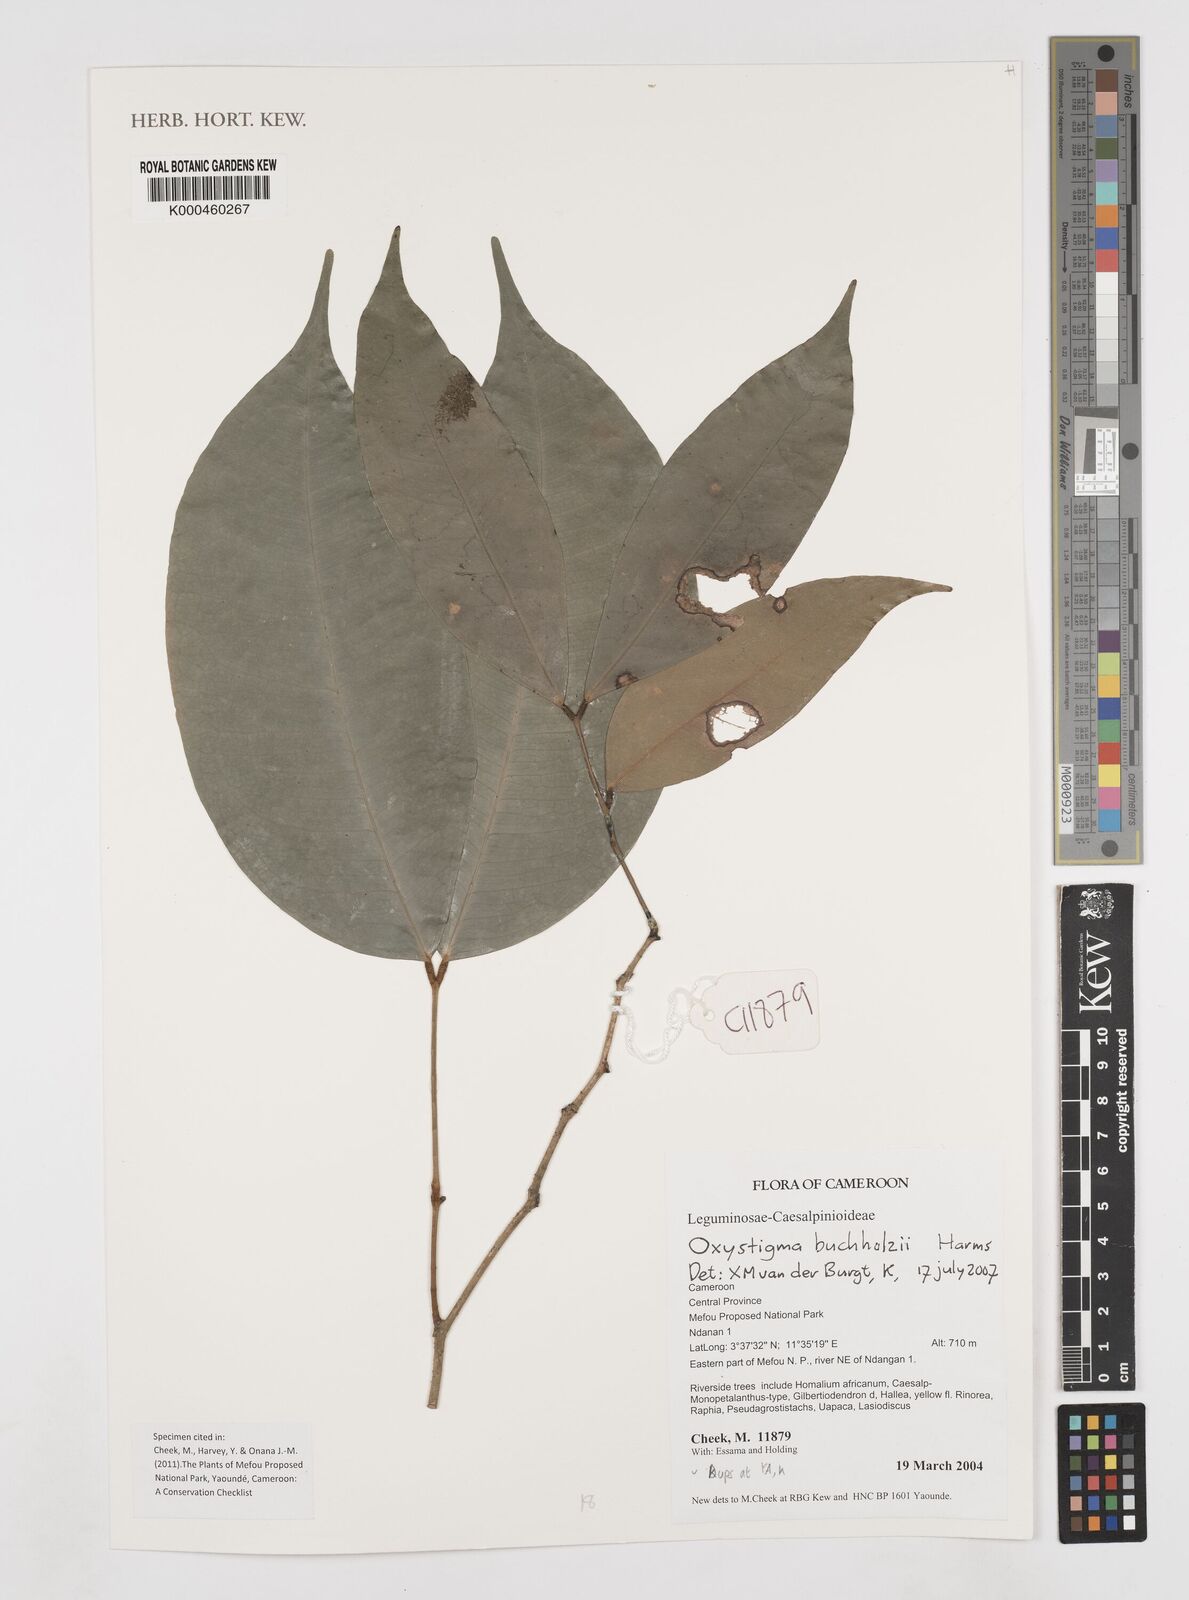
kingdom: Plantae
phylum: Tracheophyta
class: Magnoliopsida
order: Fabales
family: Fabaceae
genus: Prioria
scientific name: Prioria buchholzii
